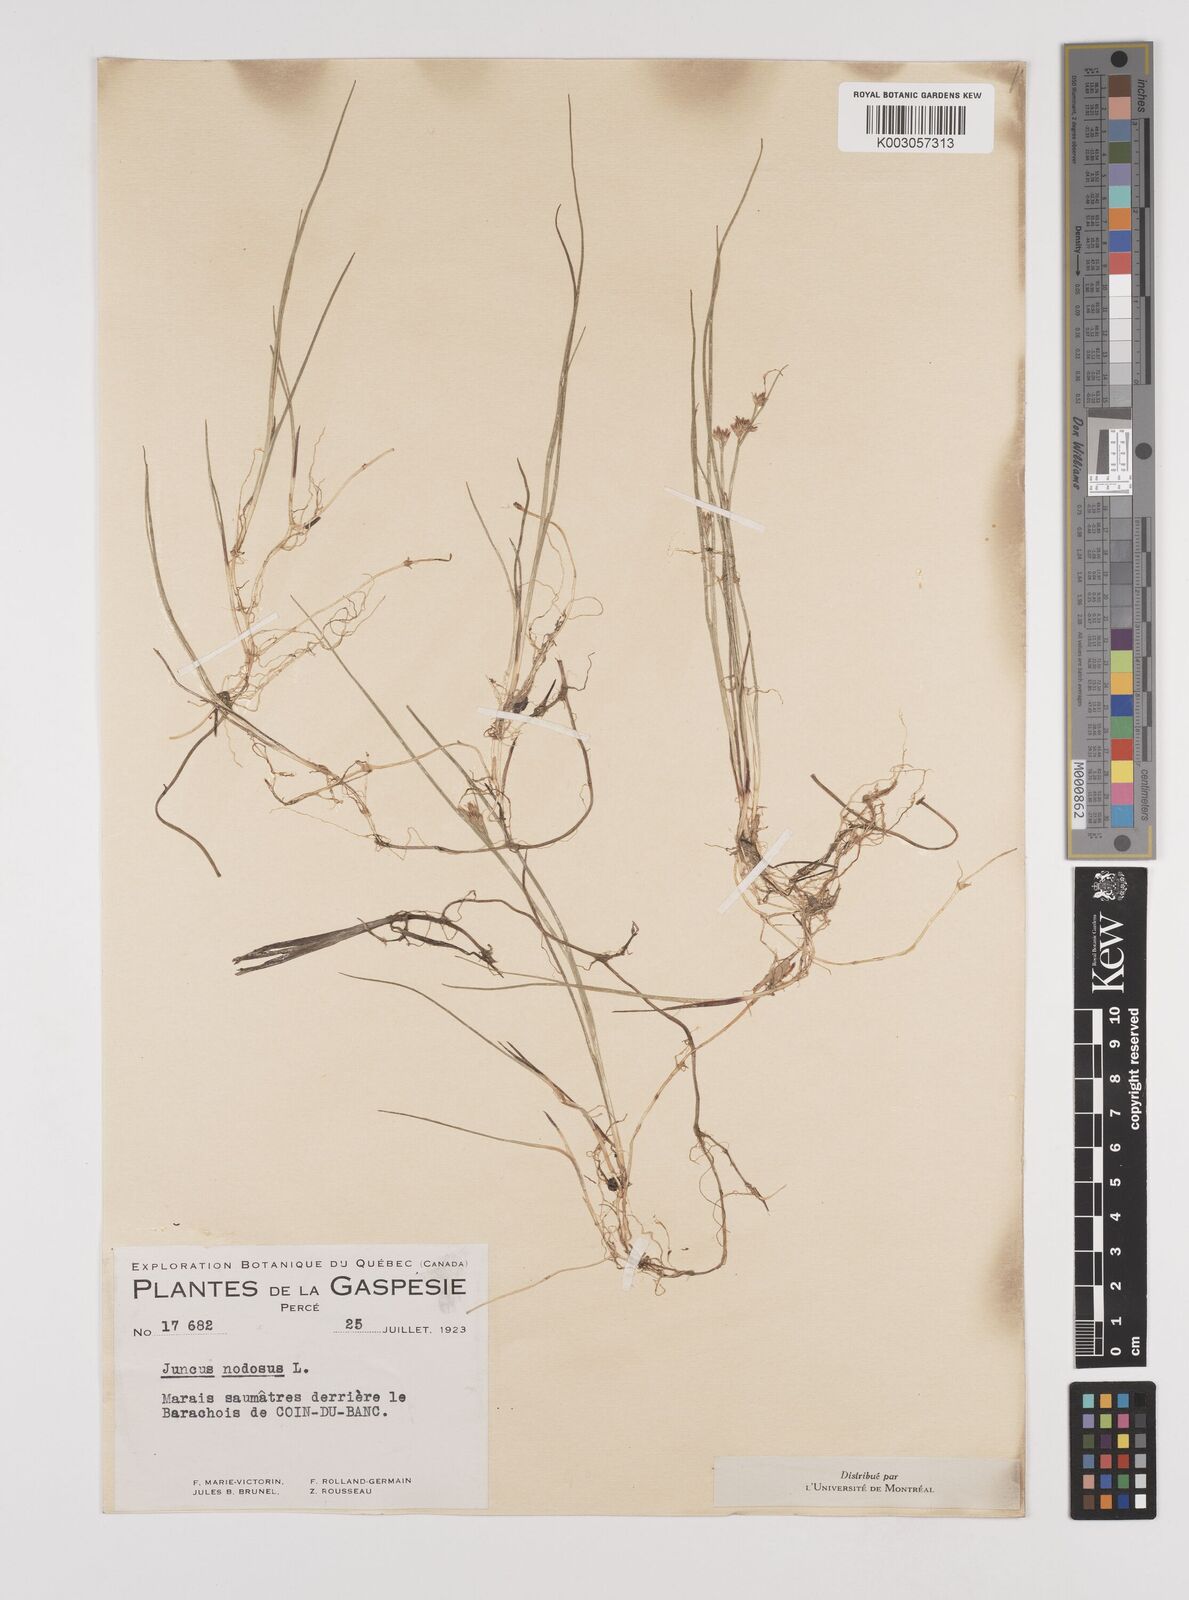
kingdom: Plantae
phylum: Tracheophyta
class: Liliopsida
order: Poales
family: Juncaceae
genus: Juncus
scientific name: Juncus nodosus
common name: Knotted rush
